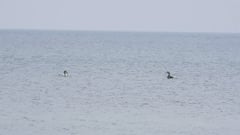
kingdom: Animalia
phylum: Chordata
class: Aves
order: Gaviiformes
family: Gaviidae
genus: Gavia
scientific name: Gavia arctica
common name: Black-throated loon
